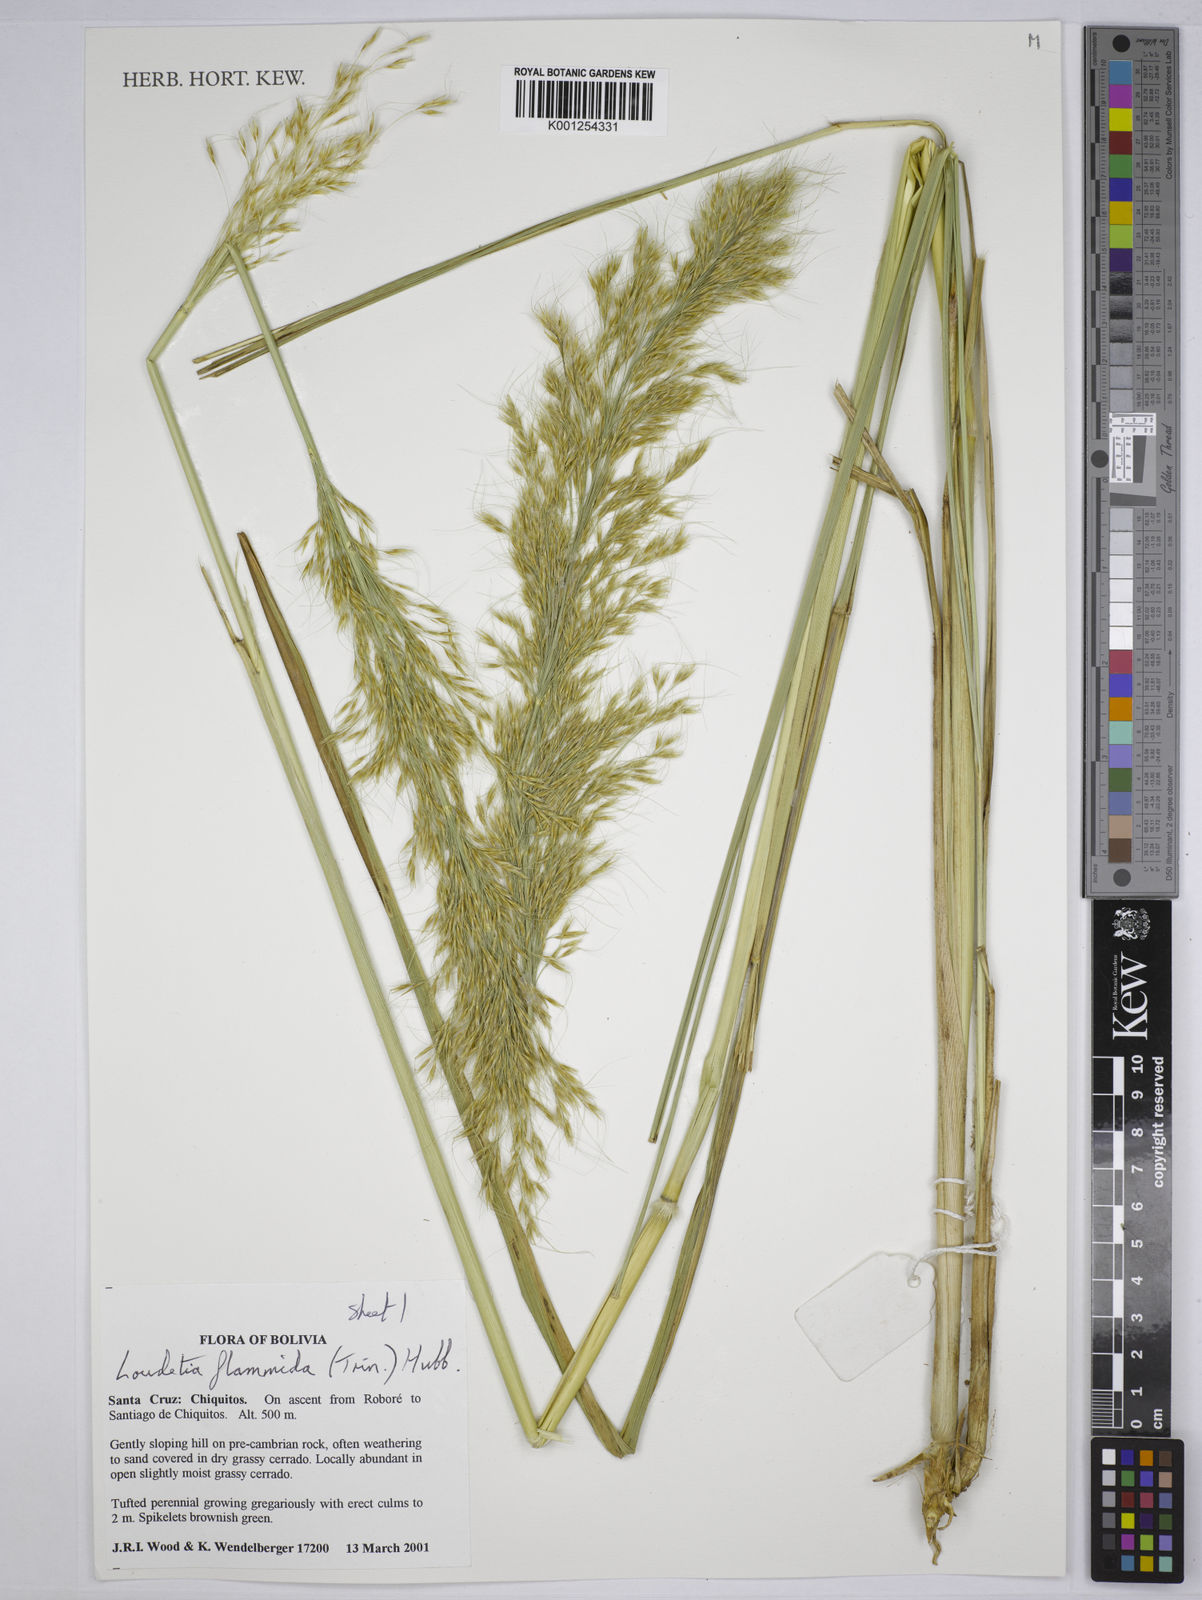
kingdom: Plantae
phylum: Tracheophyta
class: Liliopsida
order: Poales
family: Poaceae
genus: Loudetia
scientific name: Loudetia flammida
